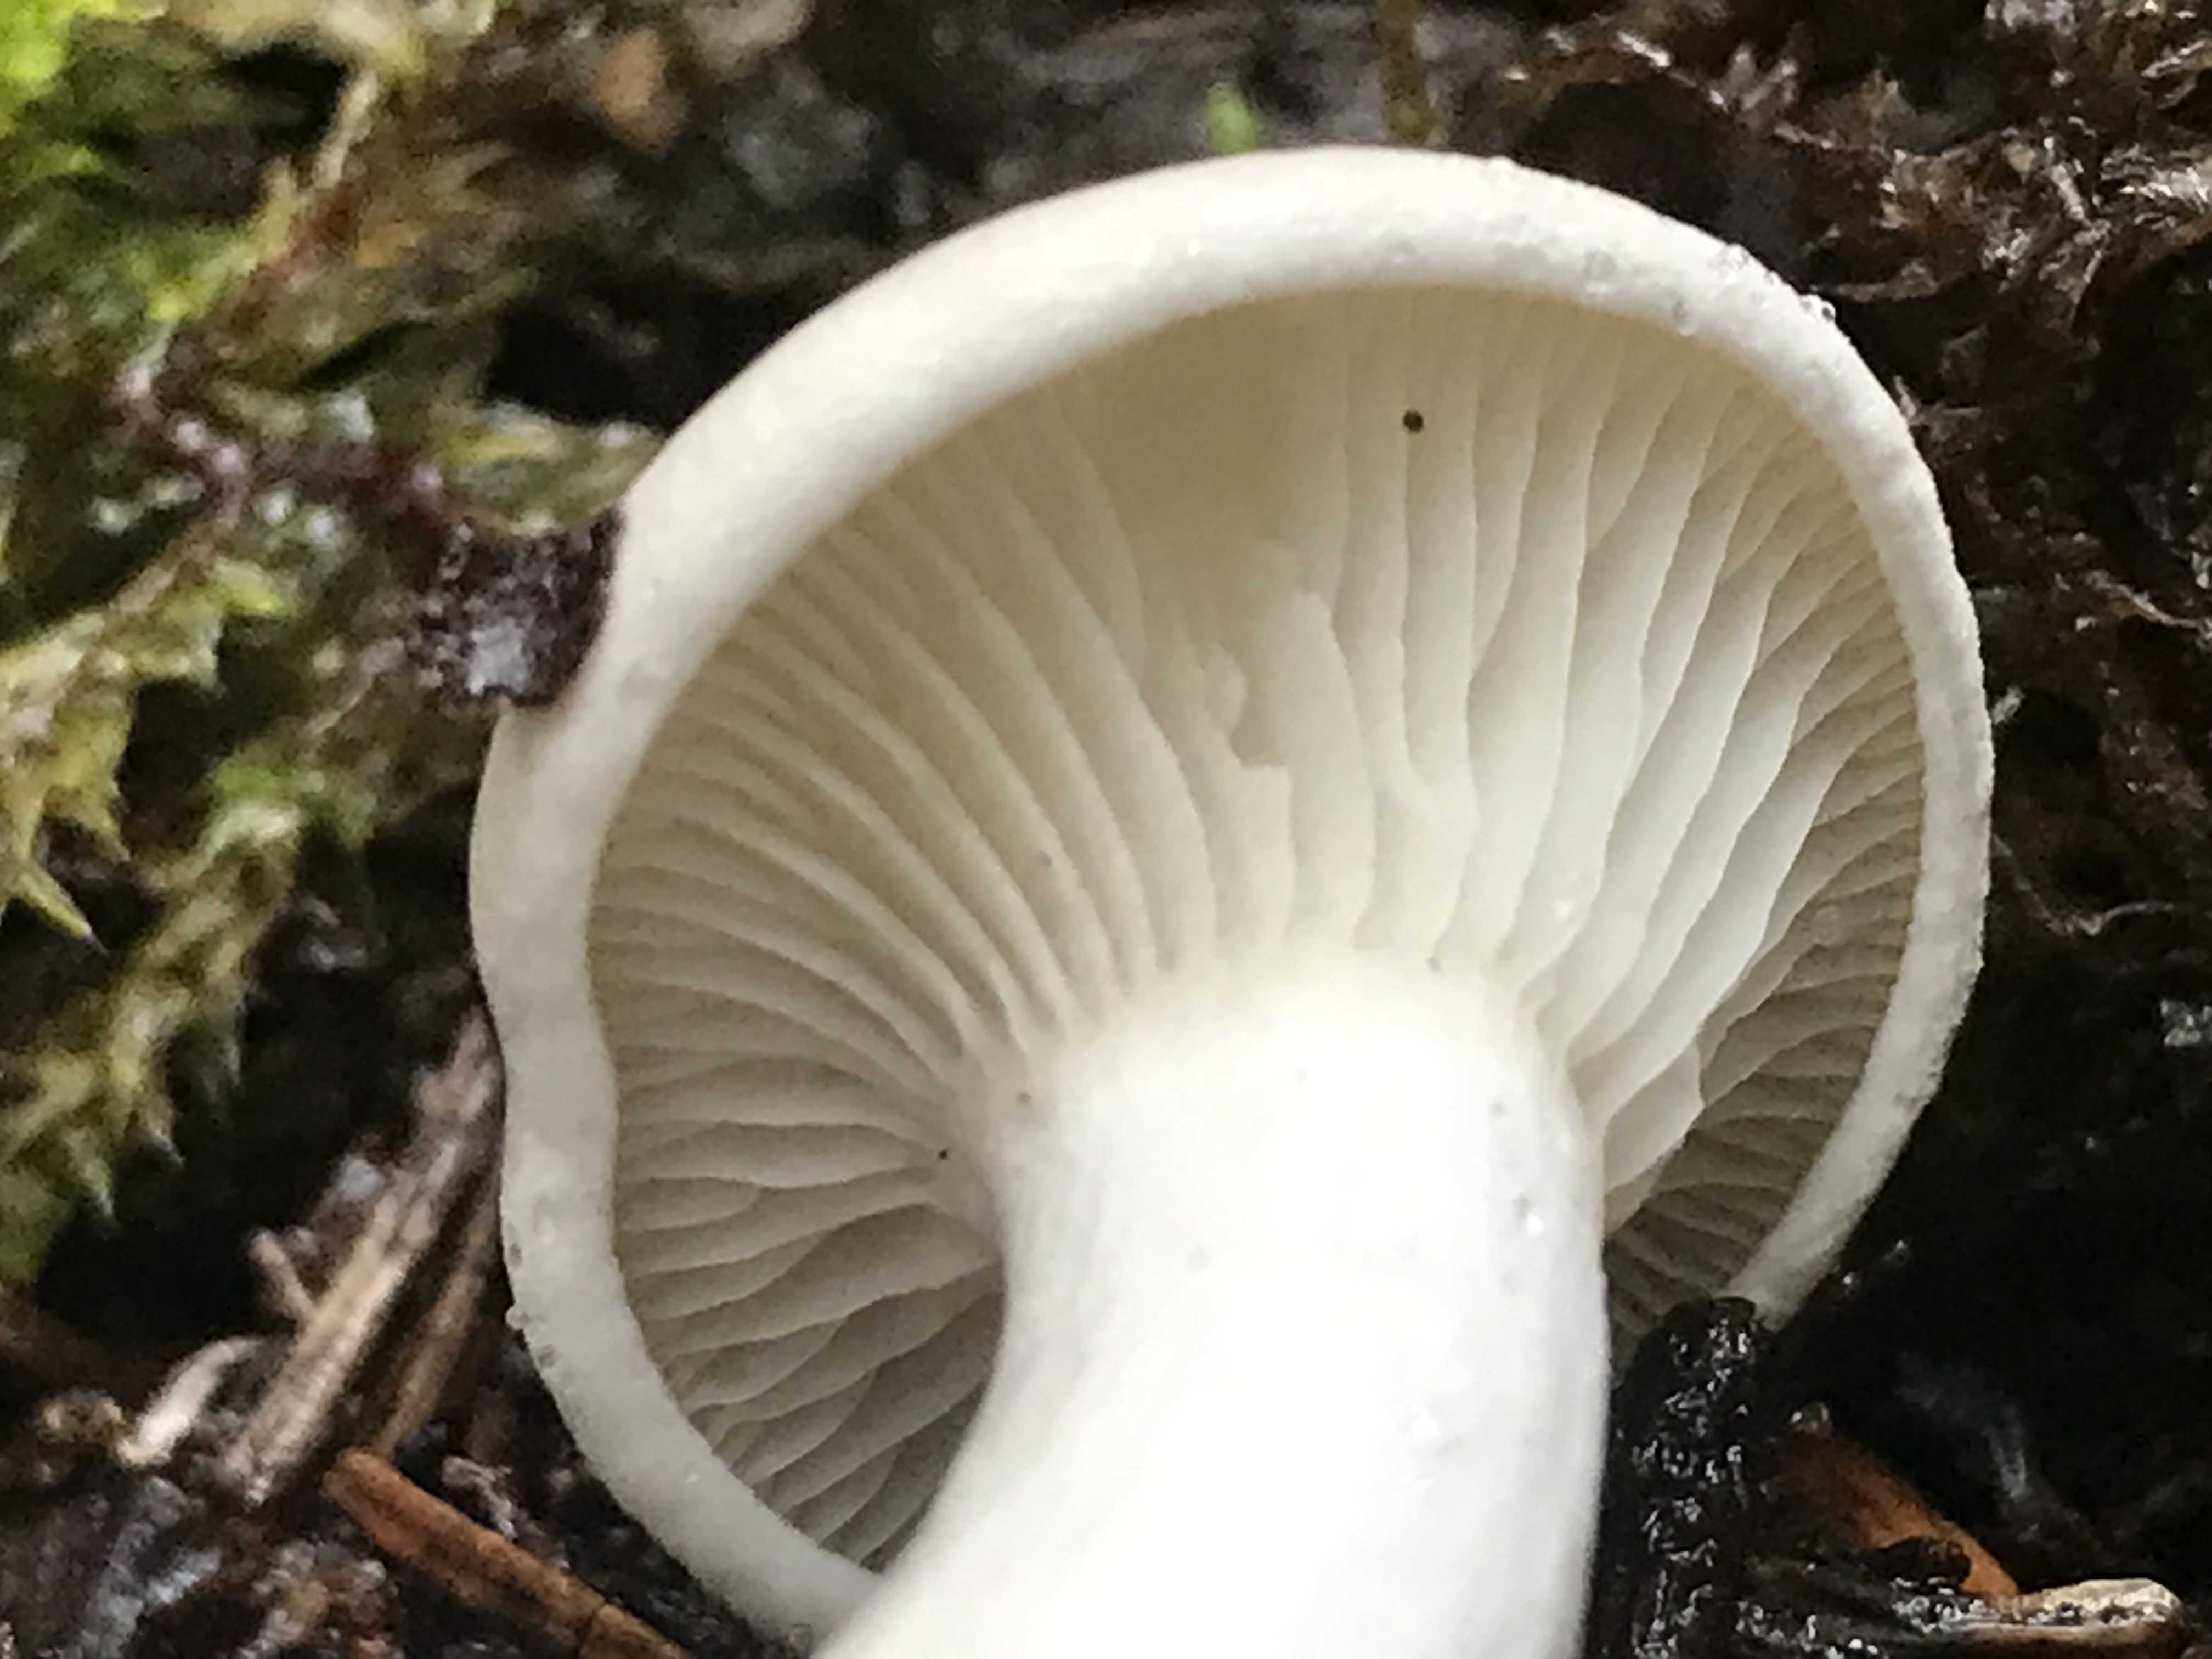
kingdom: Fungi
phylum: Basidiomycota
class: Agaricomycetes
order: Agaricales
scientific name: Agaricales
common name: champignonordenen
